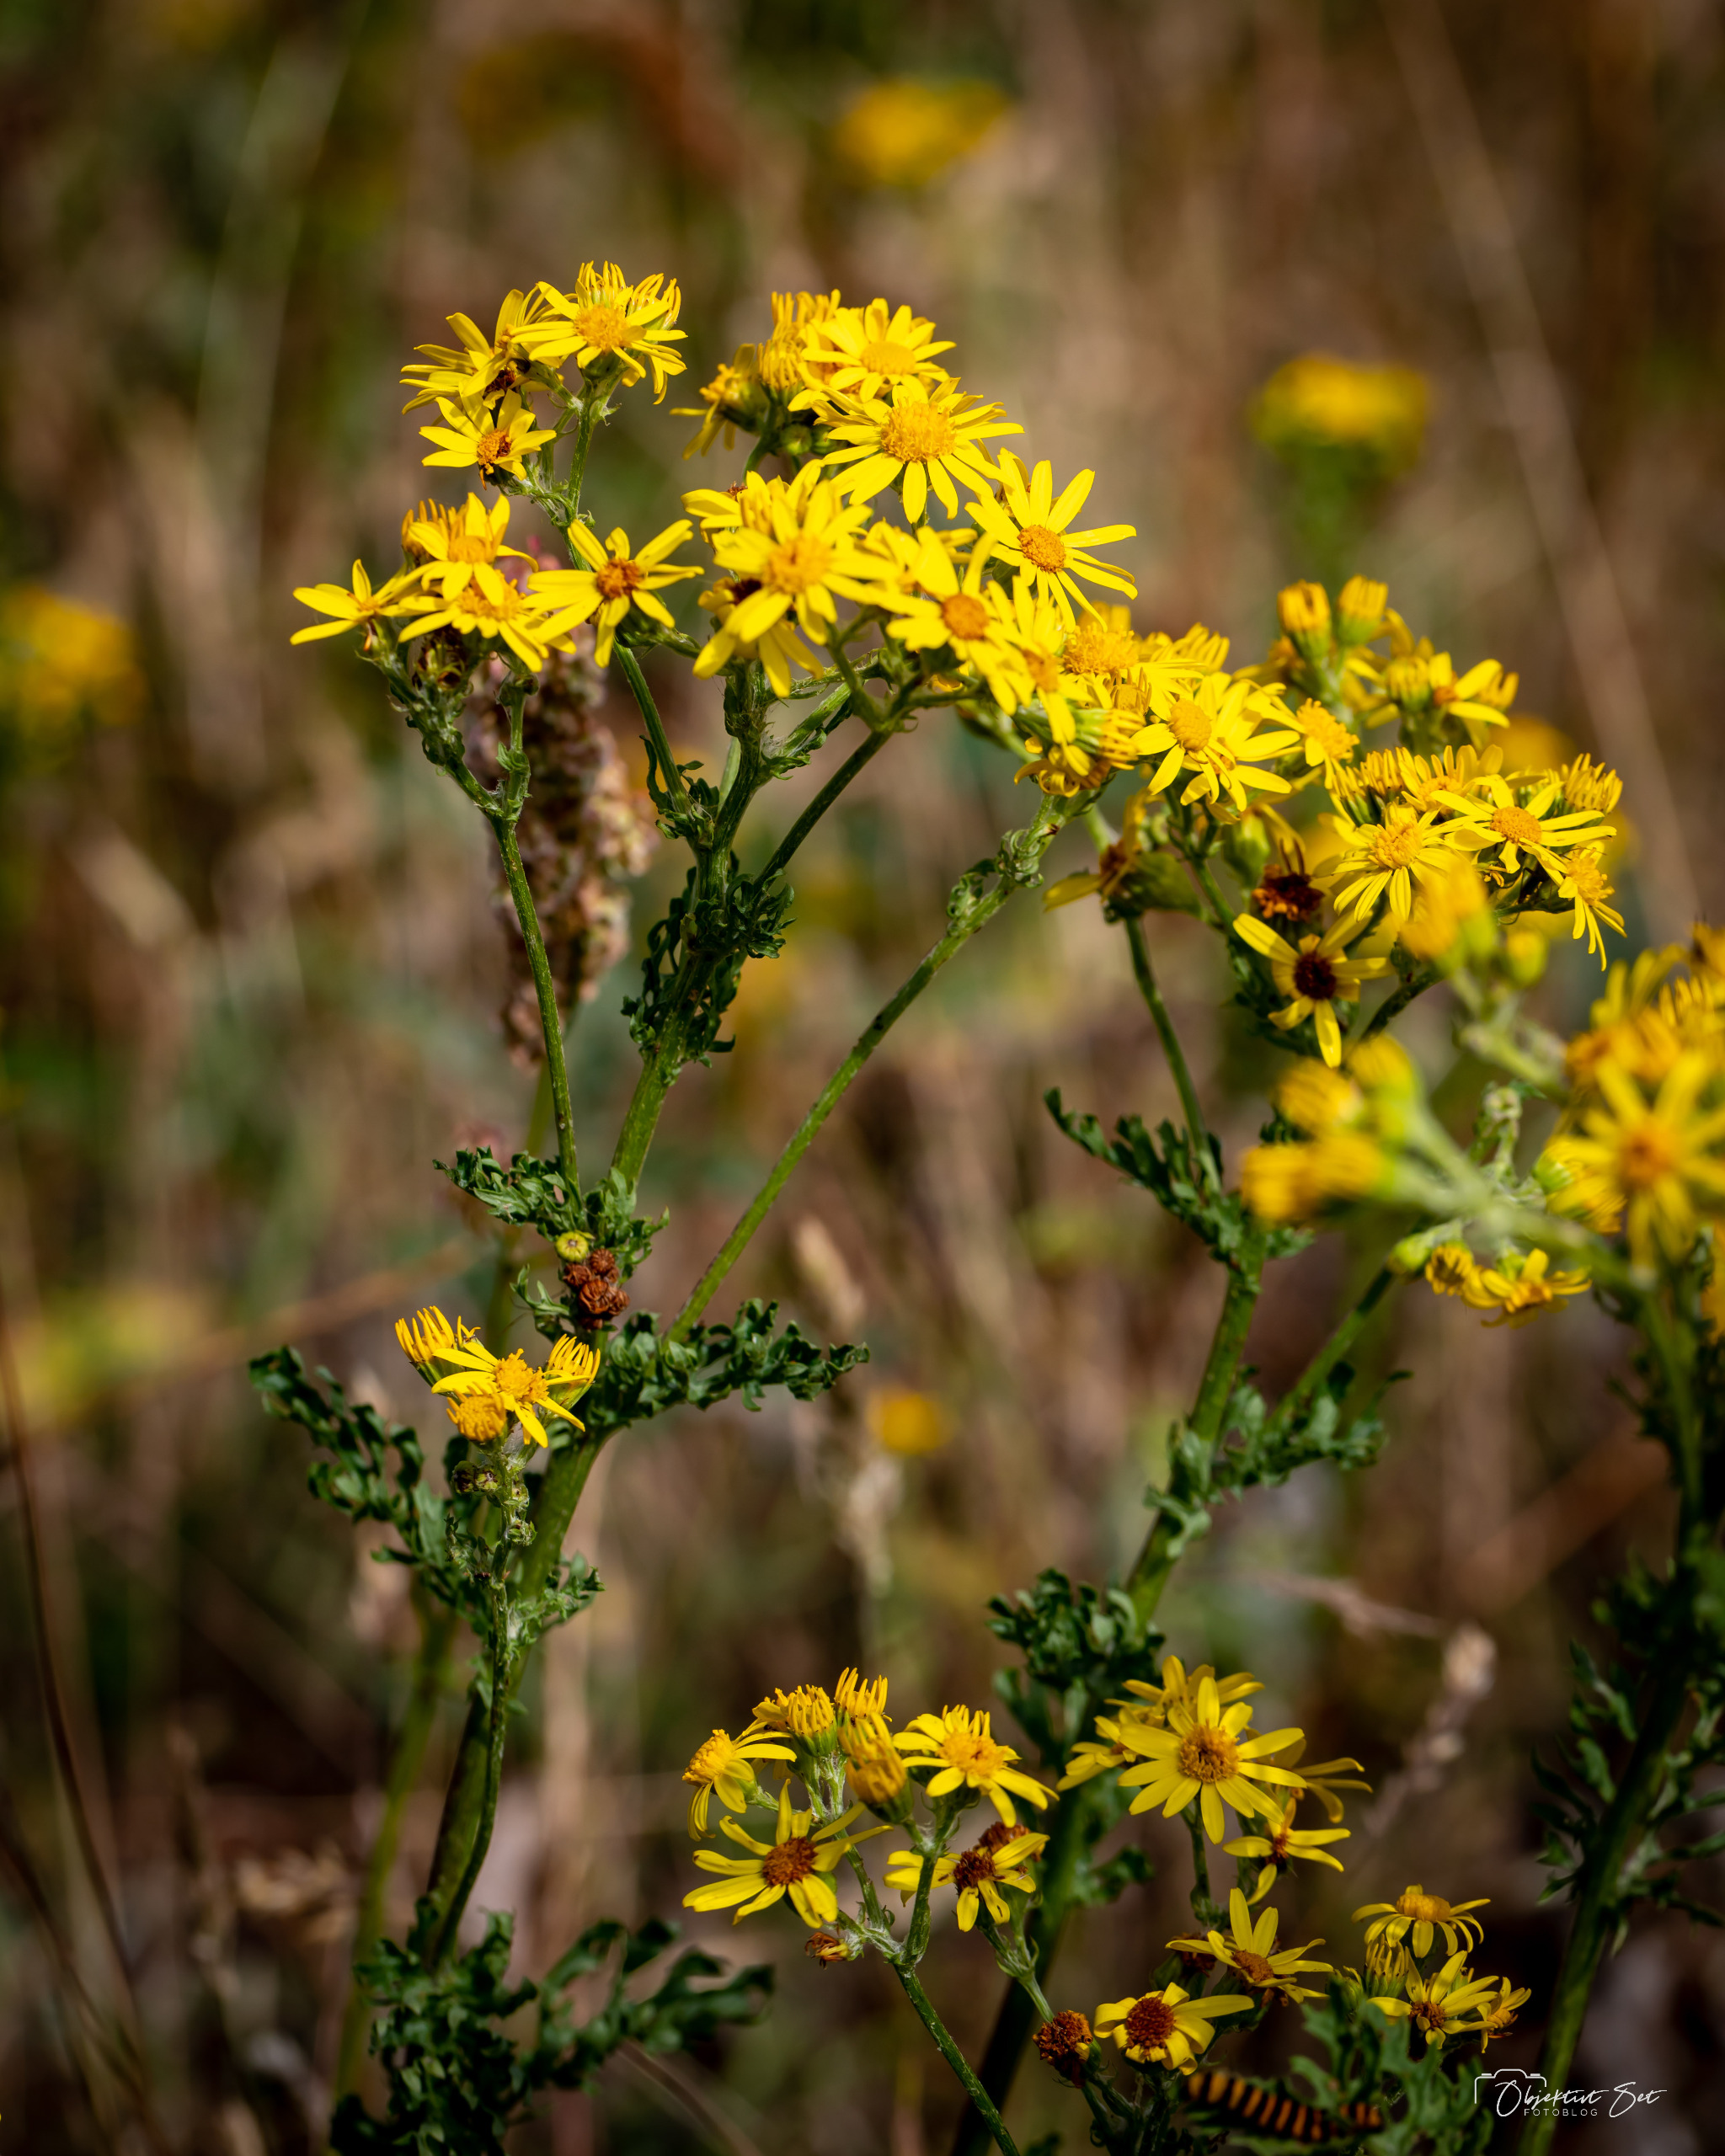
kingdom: Plantae
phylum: Tracheophyta
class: Magnoliopsida
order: Asterales
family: Asteraceae
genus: Jacobaea
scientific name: Jacobaea vulgaris
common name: Eng-brandbæger
